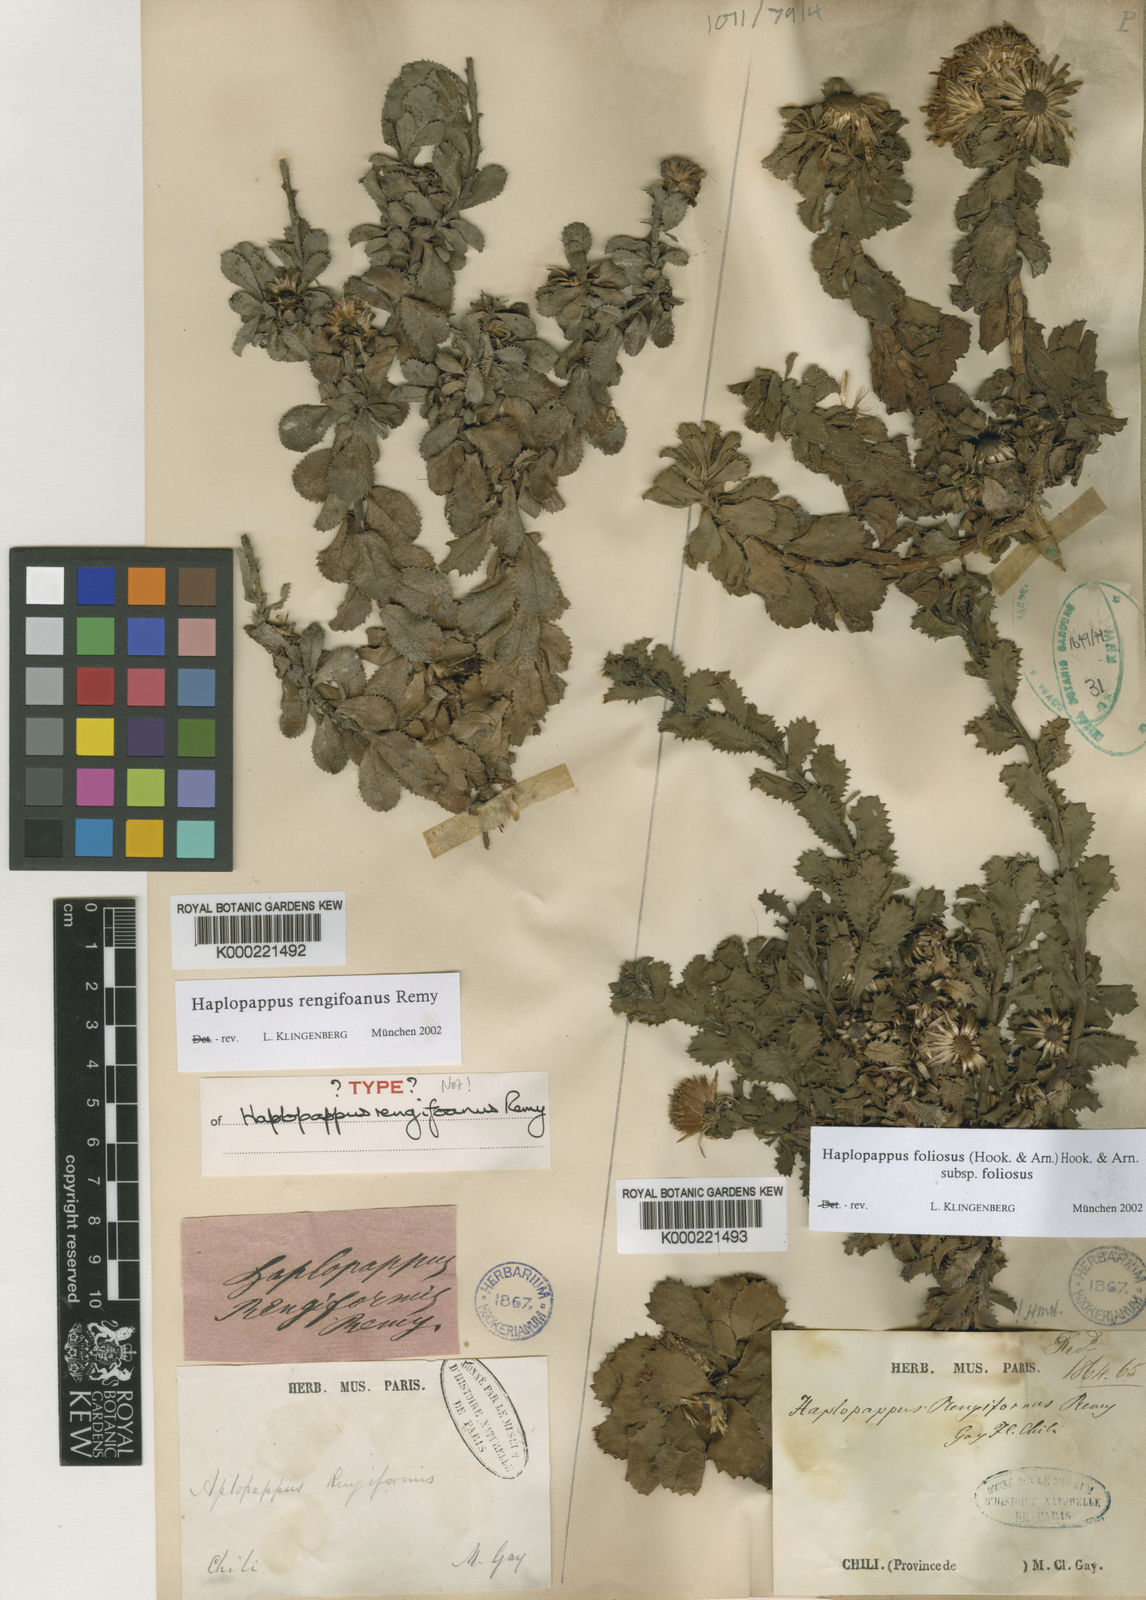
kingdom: Plantae
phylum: Tracheophyta
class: Magnoliopsida
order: Asterales
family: Asteraceae
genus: Haplopappus
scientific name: Haplopappus rengifoanus
